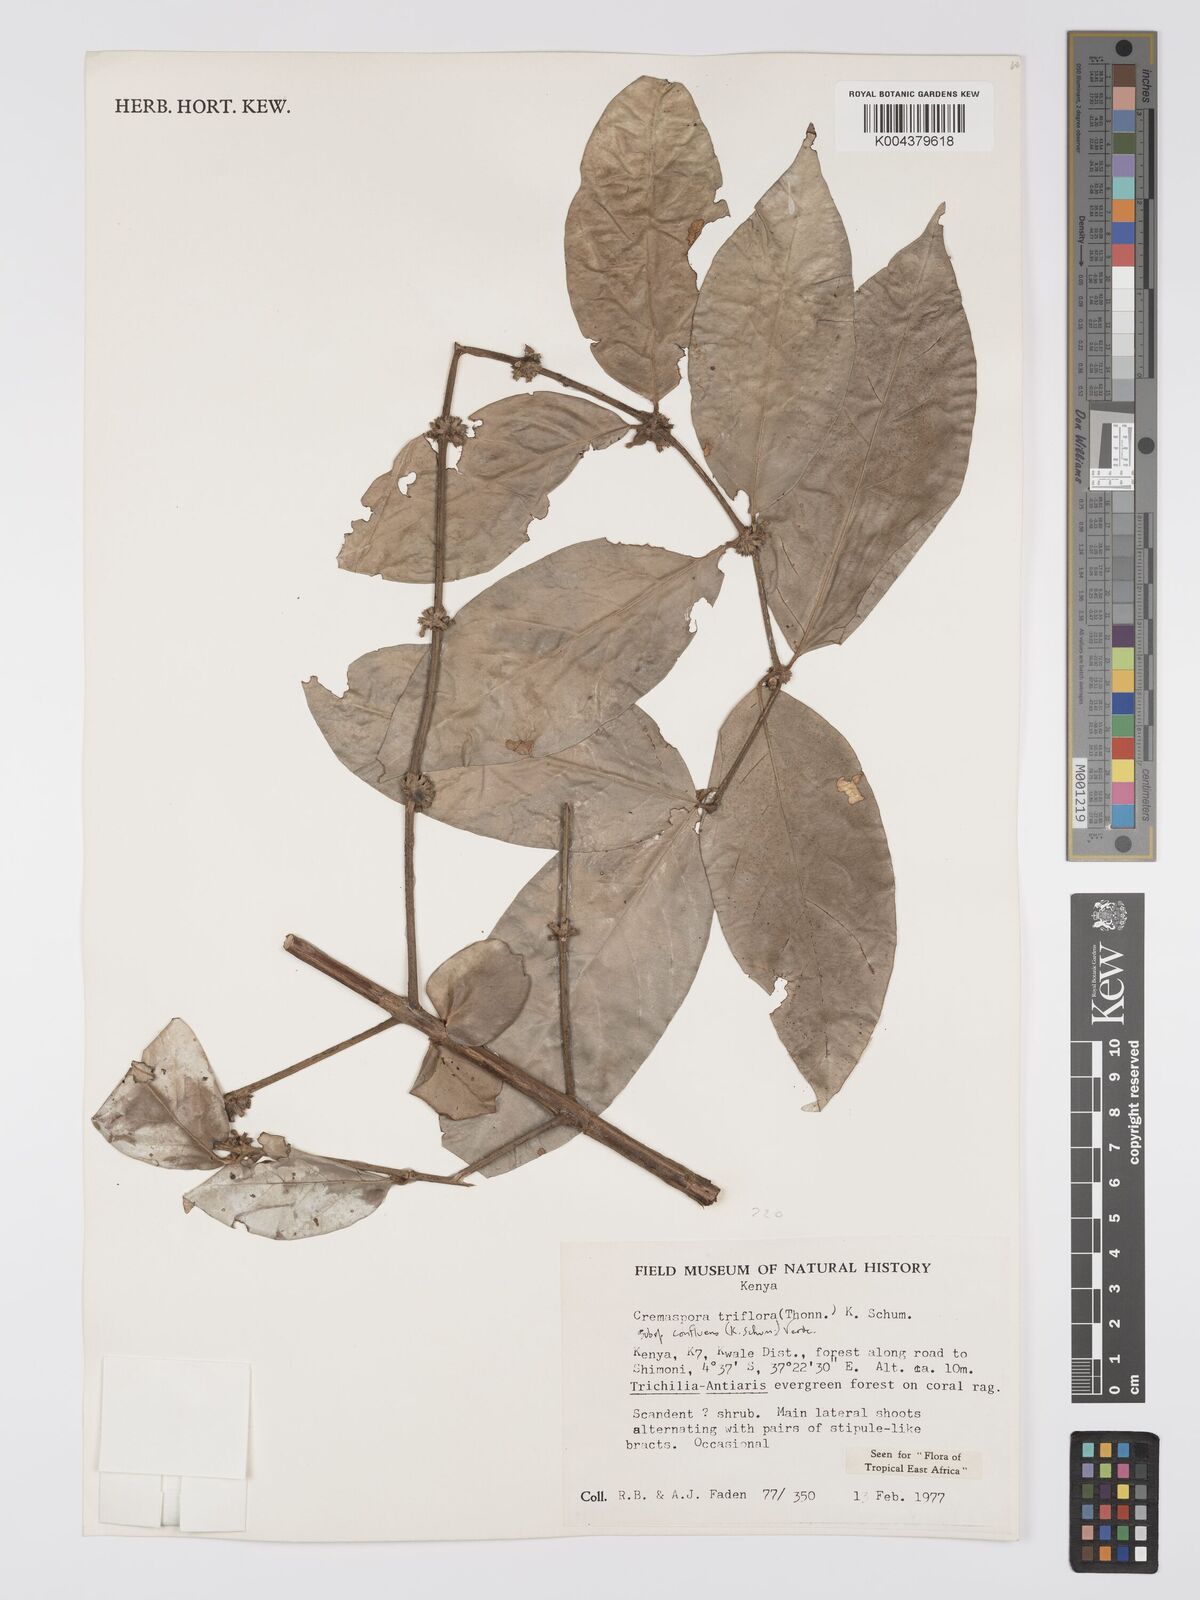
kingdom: Plantae
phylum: Tracheophyta
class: Magnoliopsida
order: Gentianales
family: Rubiaceae
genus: Cremaspora
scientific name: Cremaspora triflora
